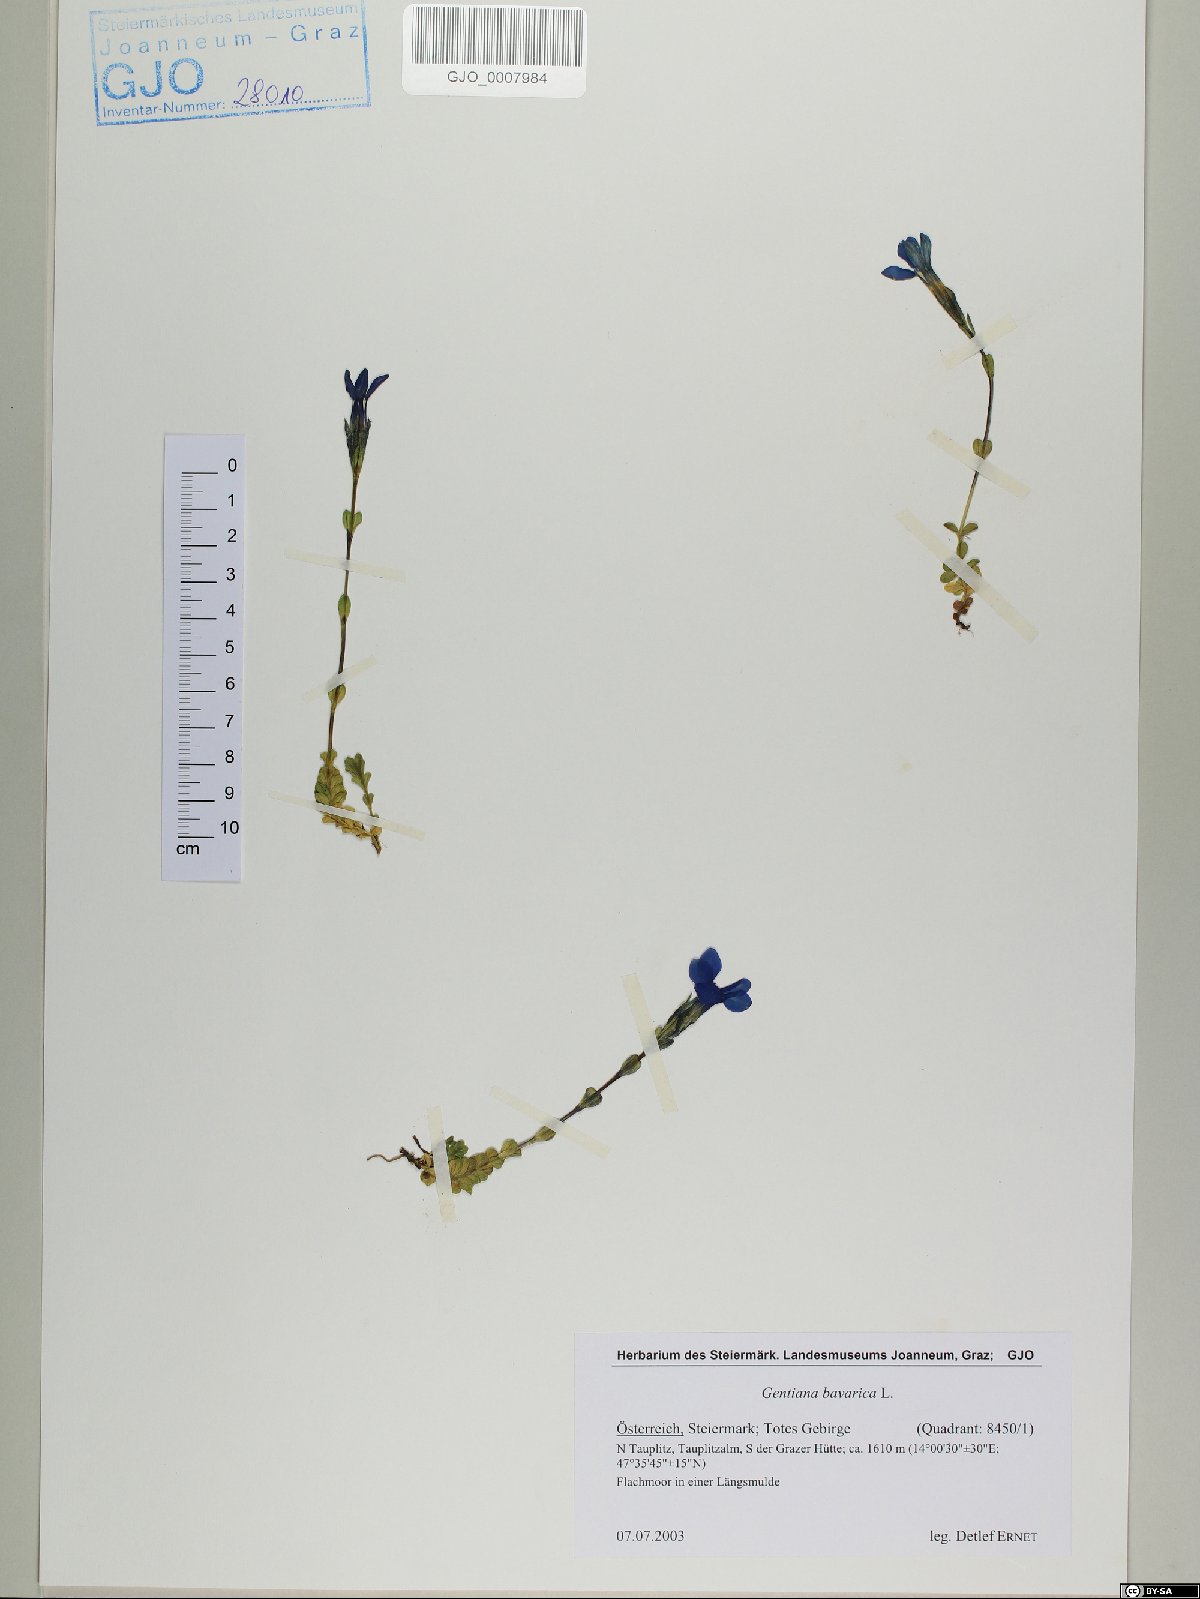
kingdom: Plantae
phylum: Tracheophyta
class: Magnoliopsida
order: Gentianales
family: Gentianaceae
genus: Gentiana
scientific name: Gentiana bavarica
